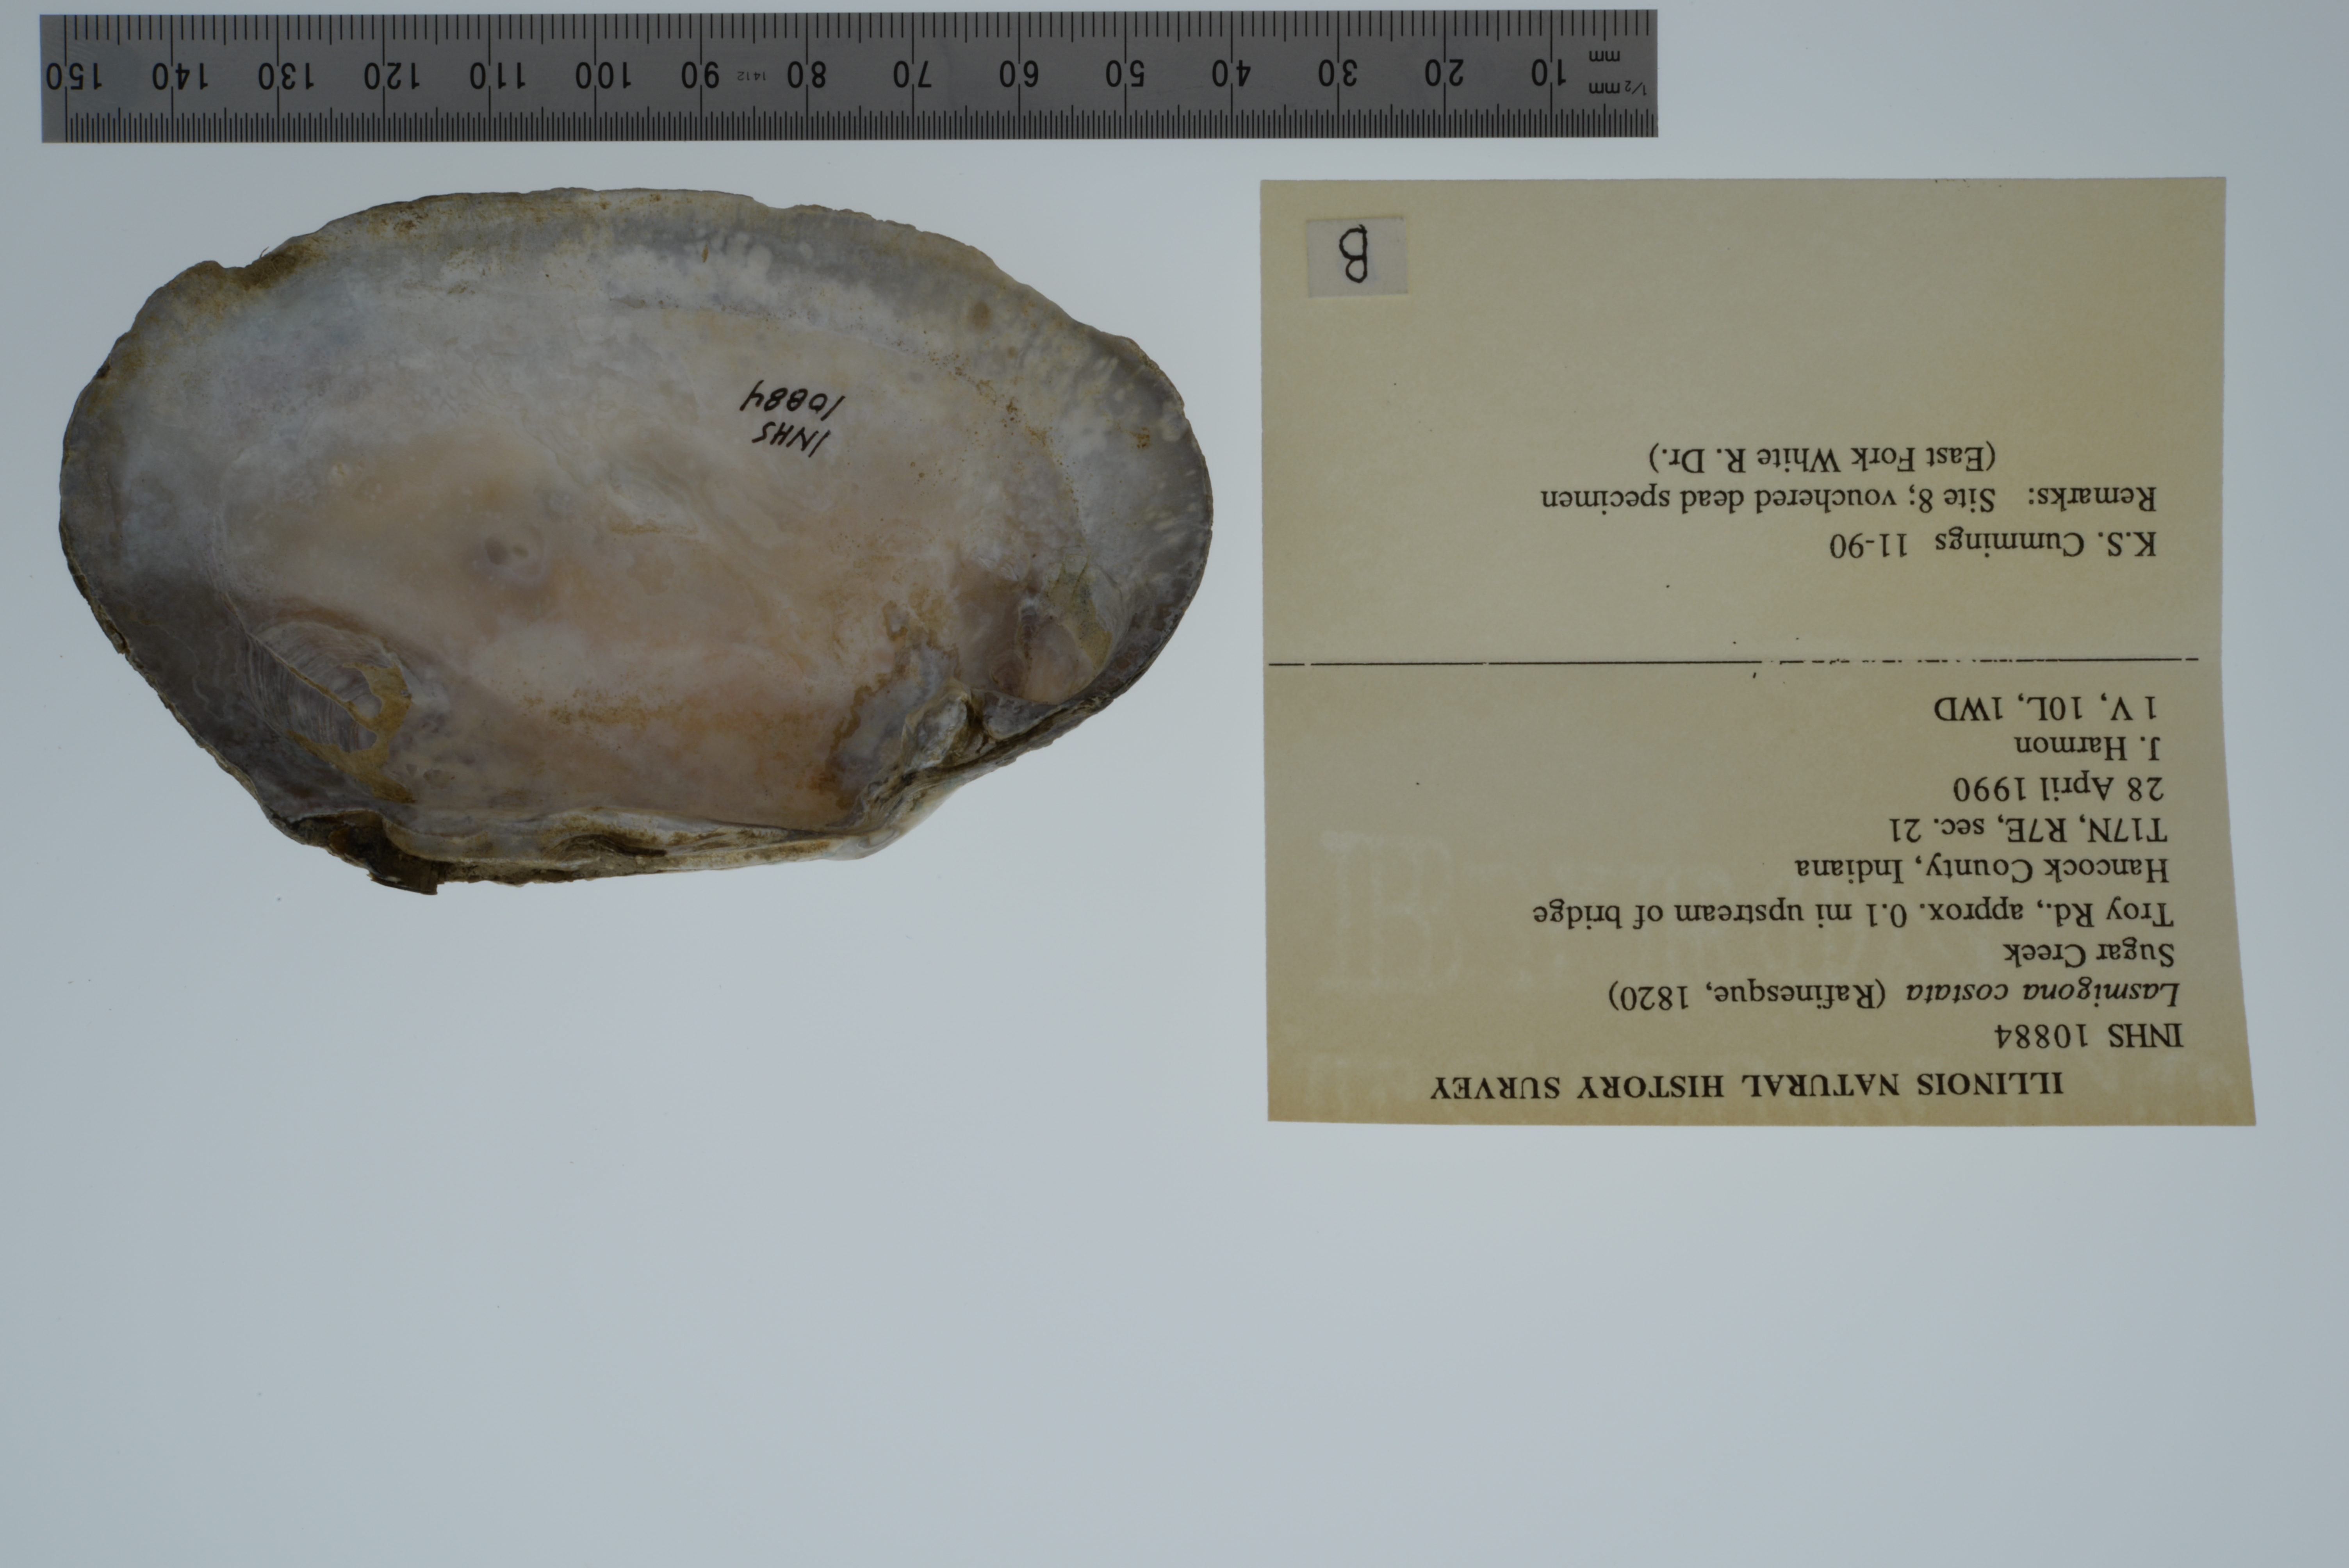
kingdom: Animalia
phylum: Mollusca
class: Bivalvia
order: Unionida
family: Unionidae
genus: Lasmigona
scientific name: Lasmigona costata
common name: Flutedshell
